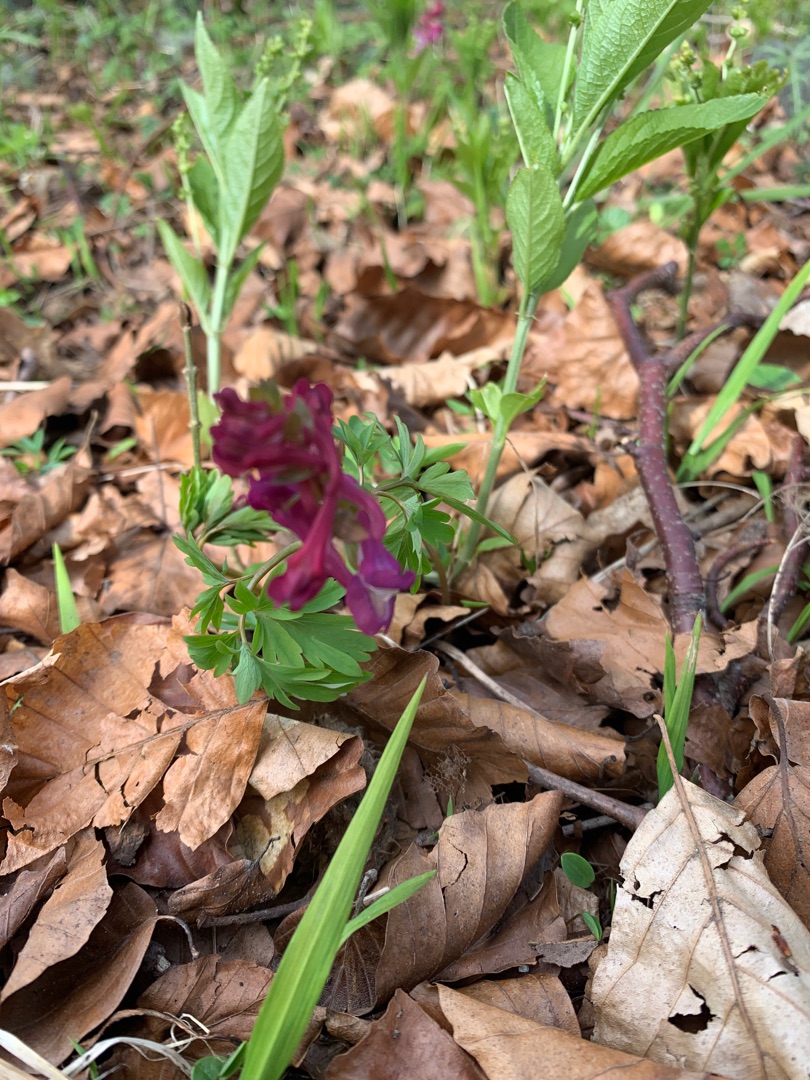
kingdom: Plantae
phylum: Tracheophyta
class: Magnoliopsida
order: Ranunculales
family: Papaveraceae
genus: Corydalis
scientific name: Corydalis cava
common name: Hulrodet lærkespore
